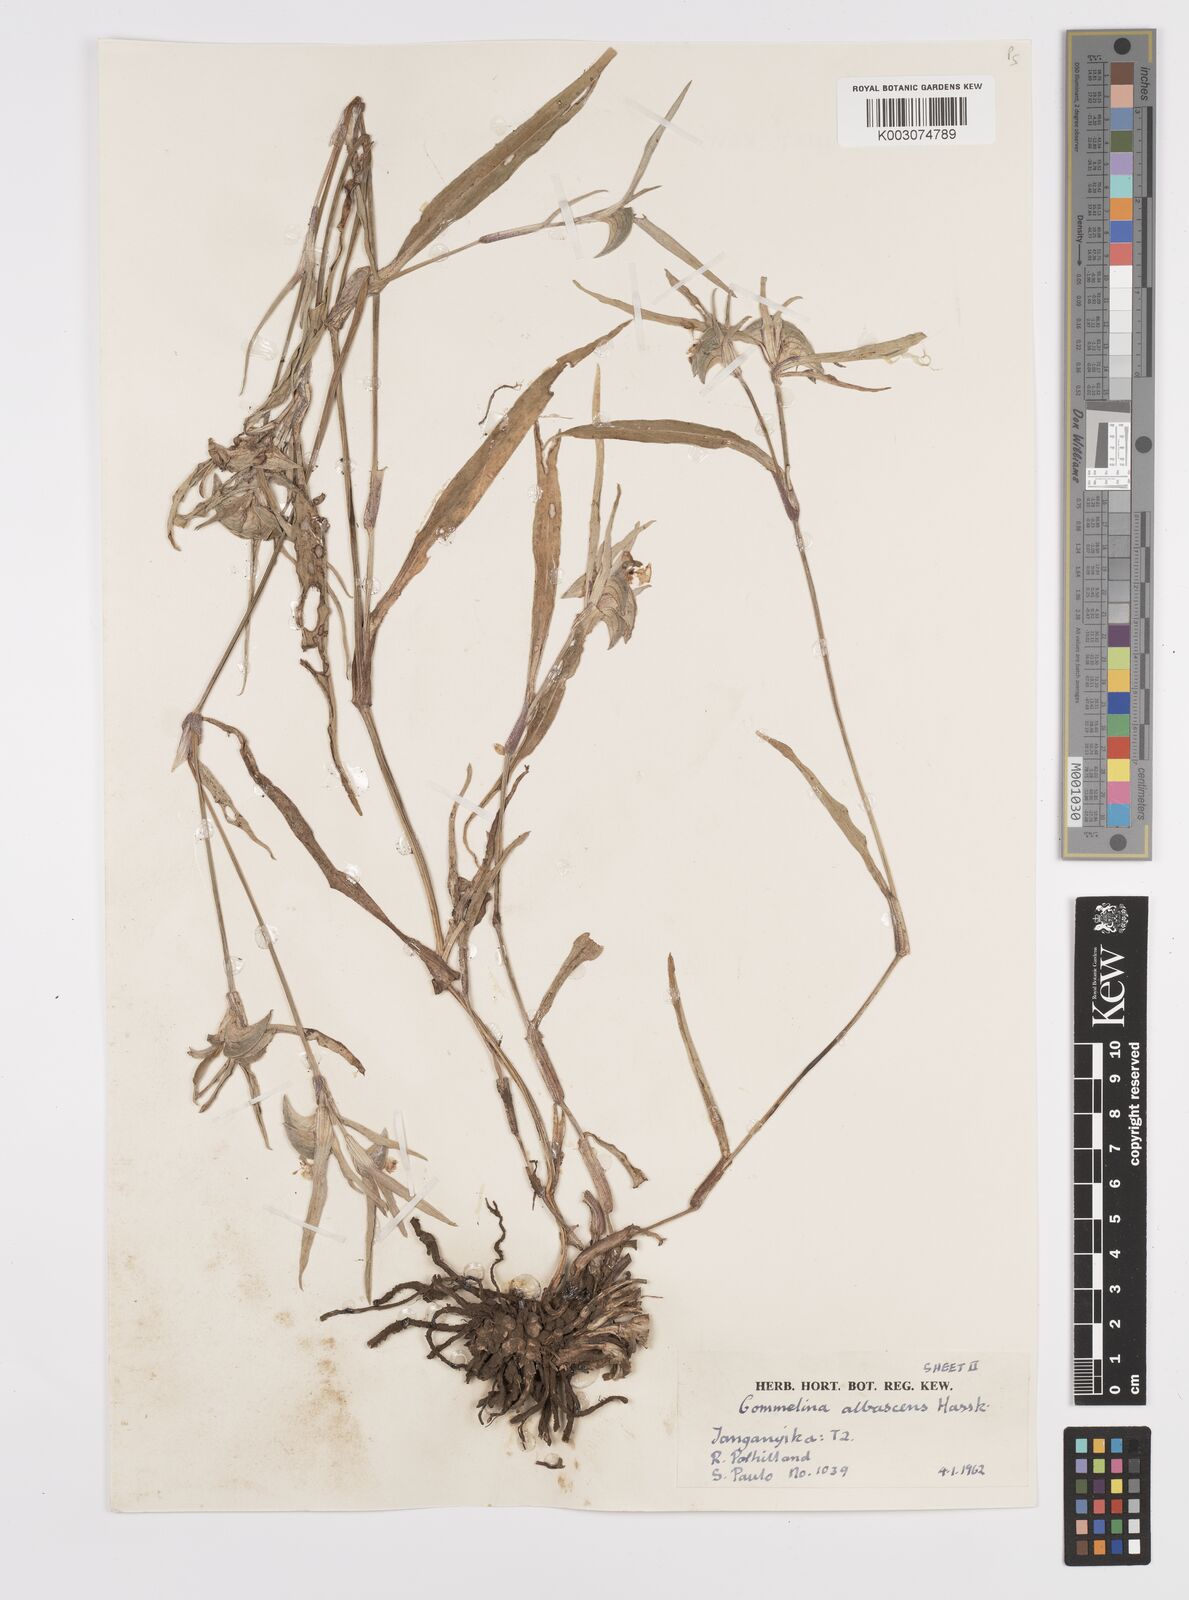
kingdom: Plantae
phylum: Tracheophyta
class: Liliopsida
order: Commelinales
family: Commelinaceae
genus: Commelina
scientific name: Commelina albescens
